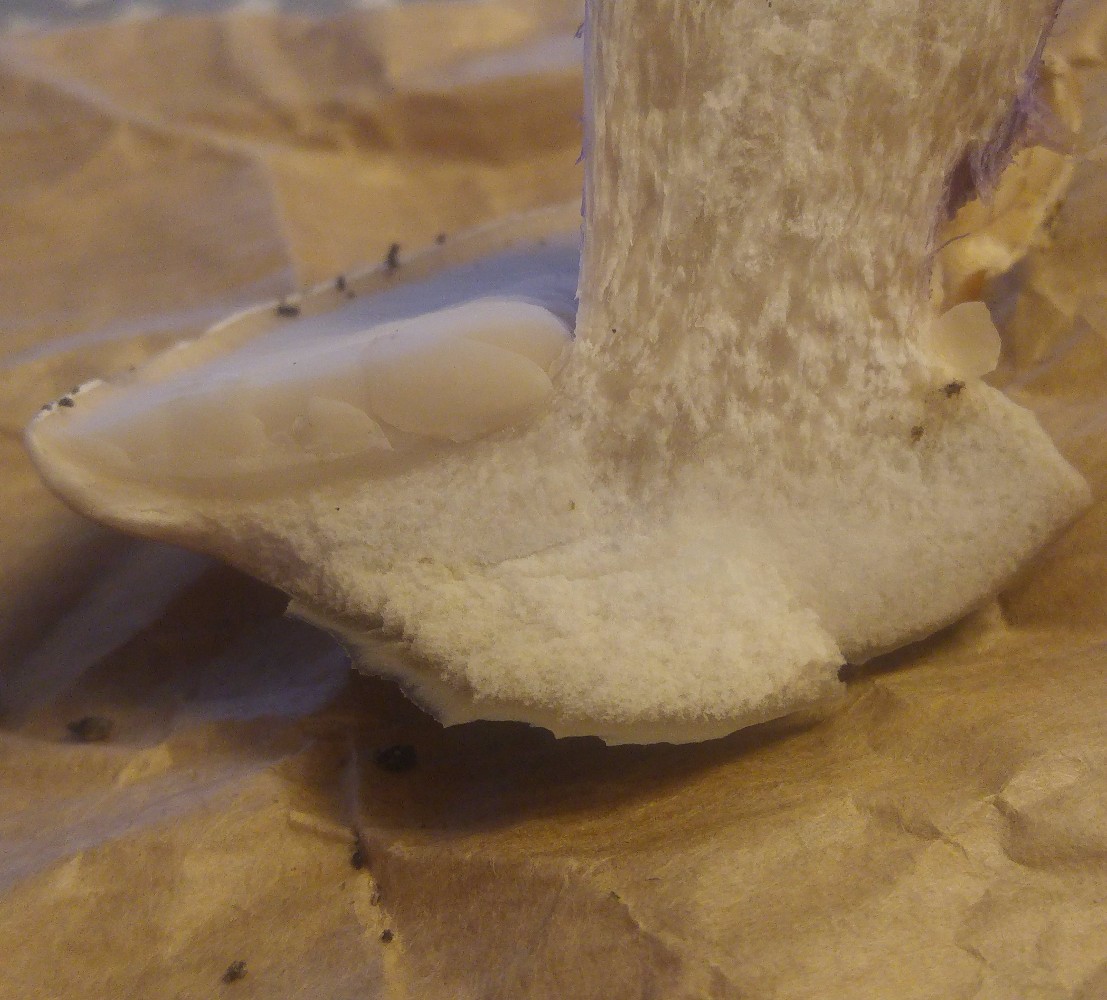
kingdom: Fungi
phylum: Basidiomycota
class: Agaricomycetes
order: Agaricales
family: Tricholomataceae
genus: Lepista
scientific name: Lepista personata
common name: bleg hekseringshat
